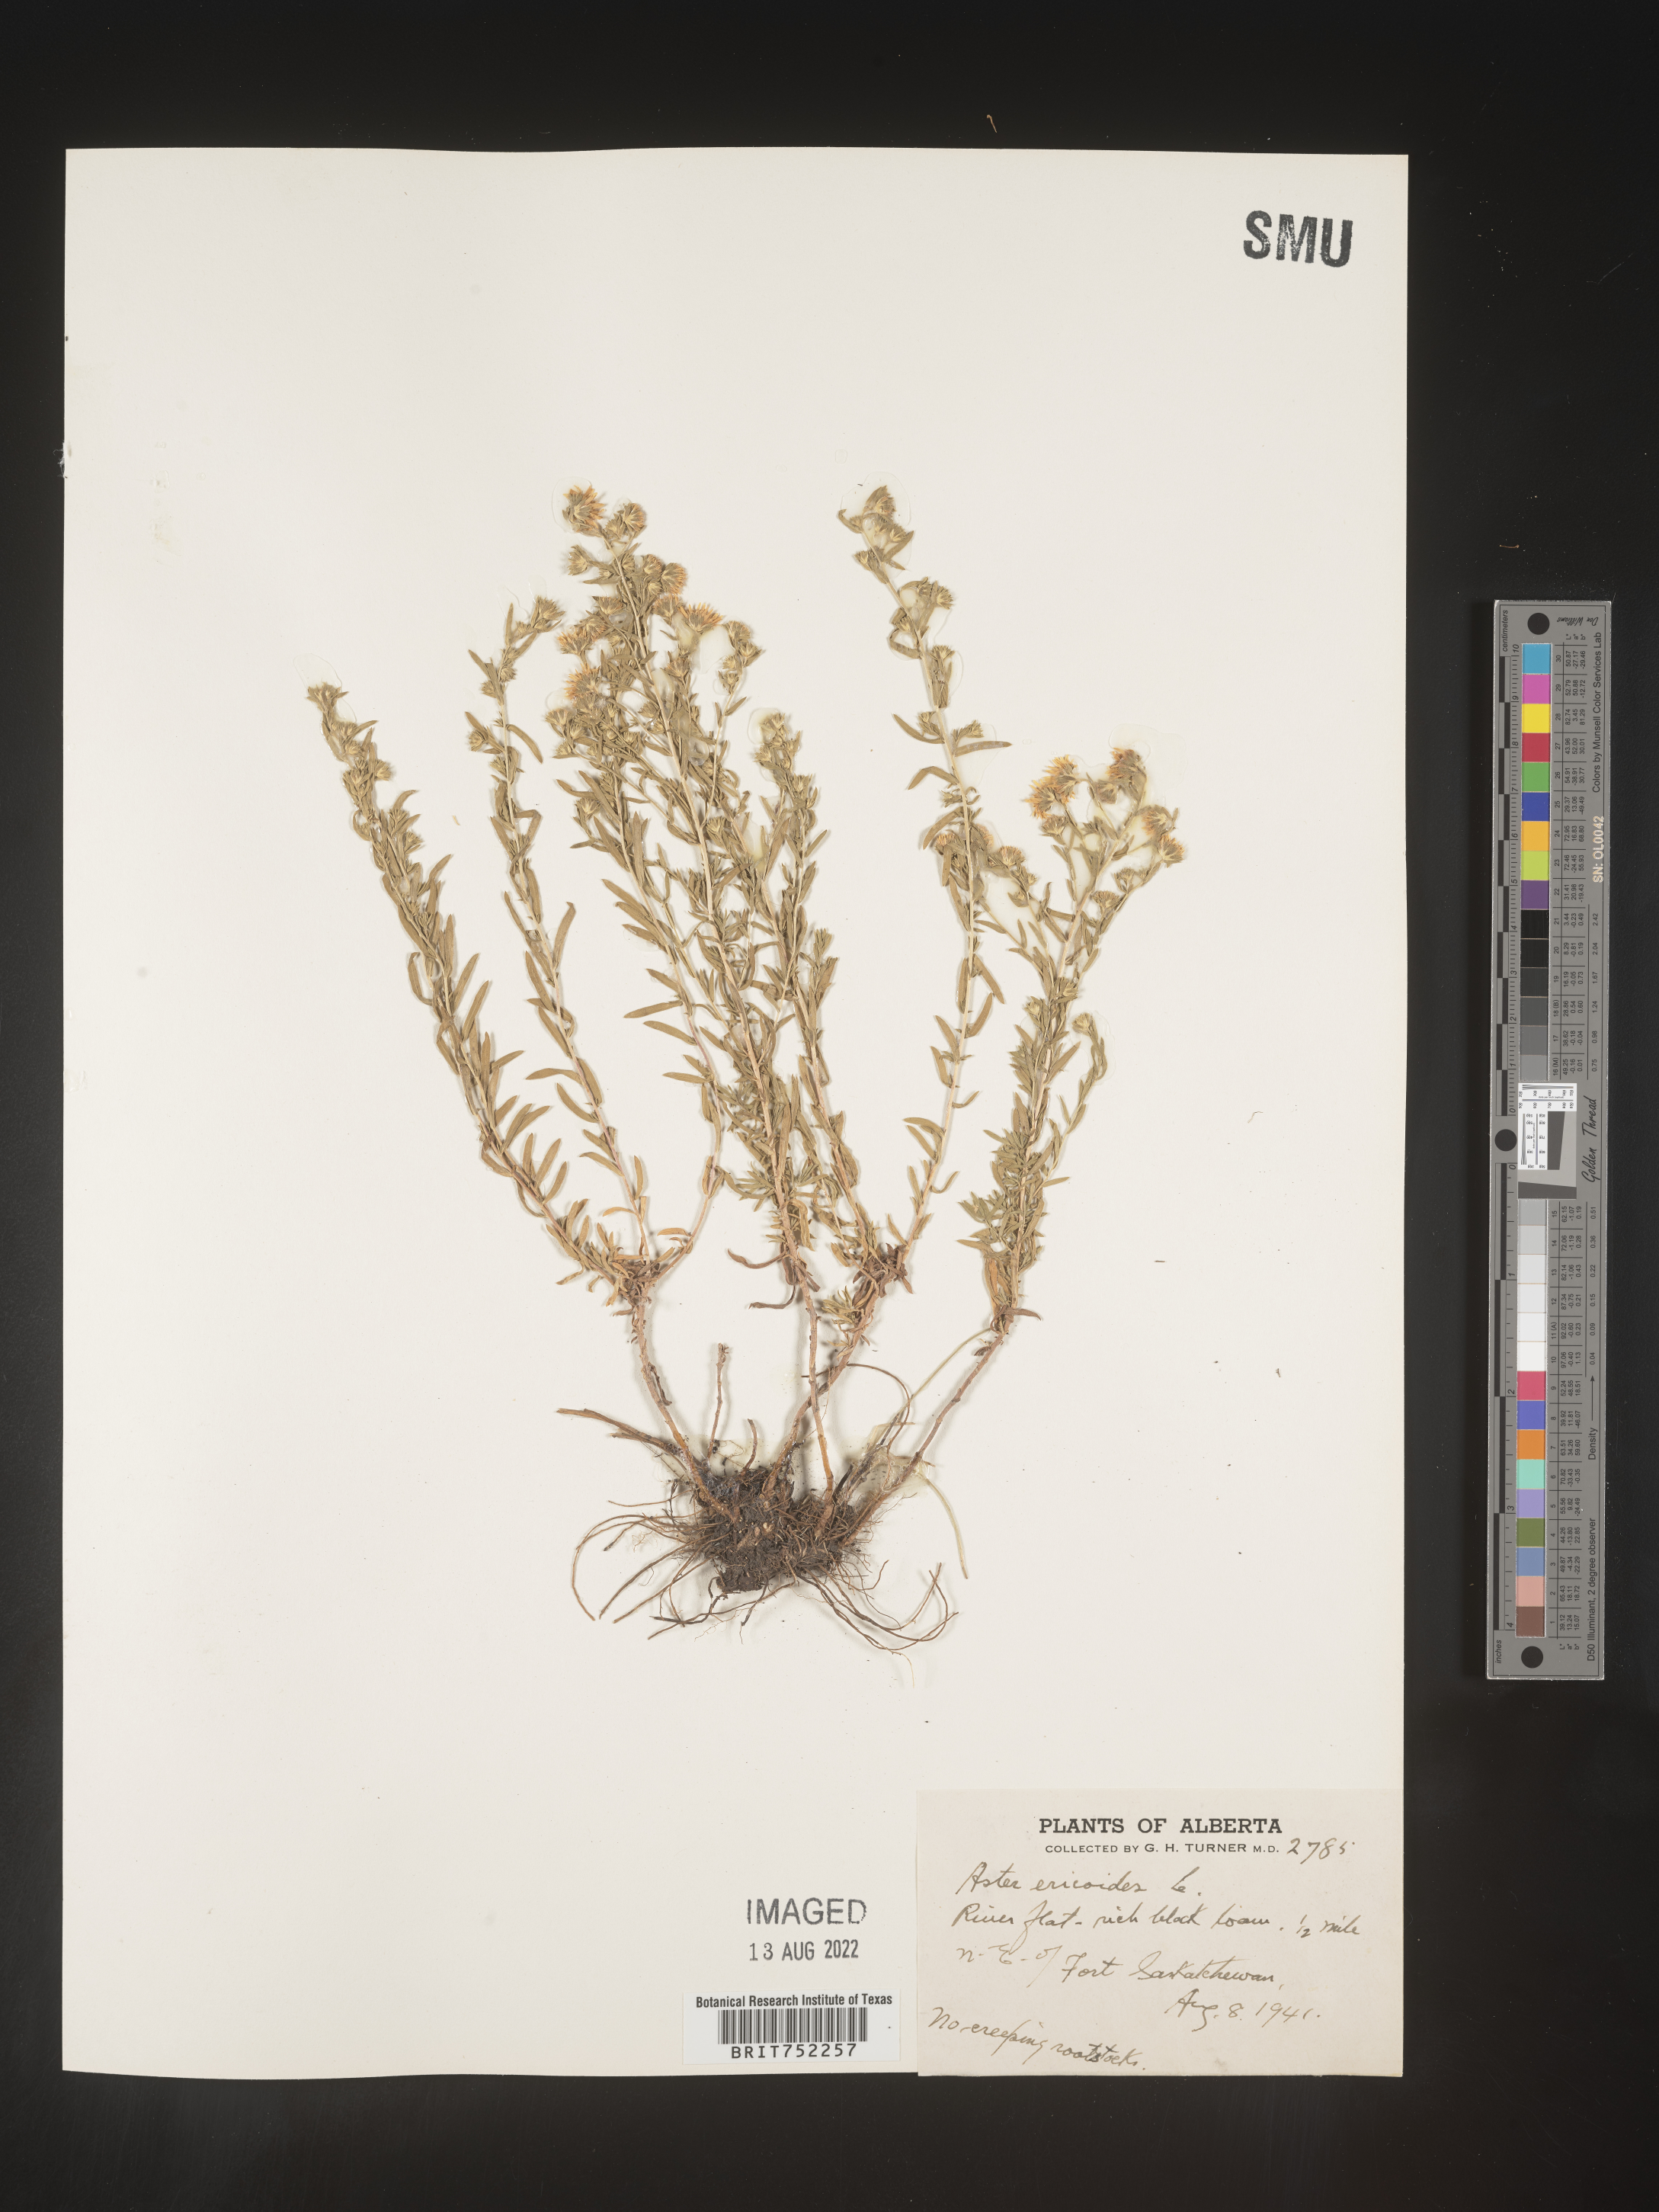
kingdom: Plantae
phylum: Tracheophyta
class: Magnoliopsida
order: Asterales
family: Asteraceae
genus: Symphyotrichum
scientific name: Symphyotrichum ericoides
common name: Heath aster
